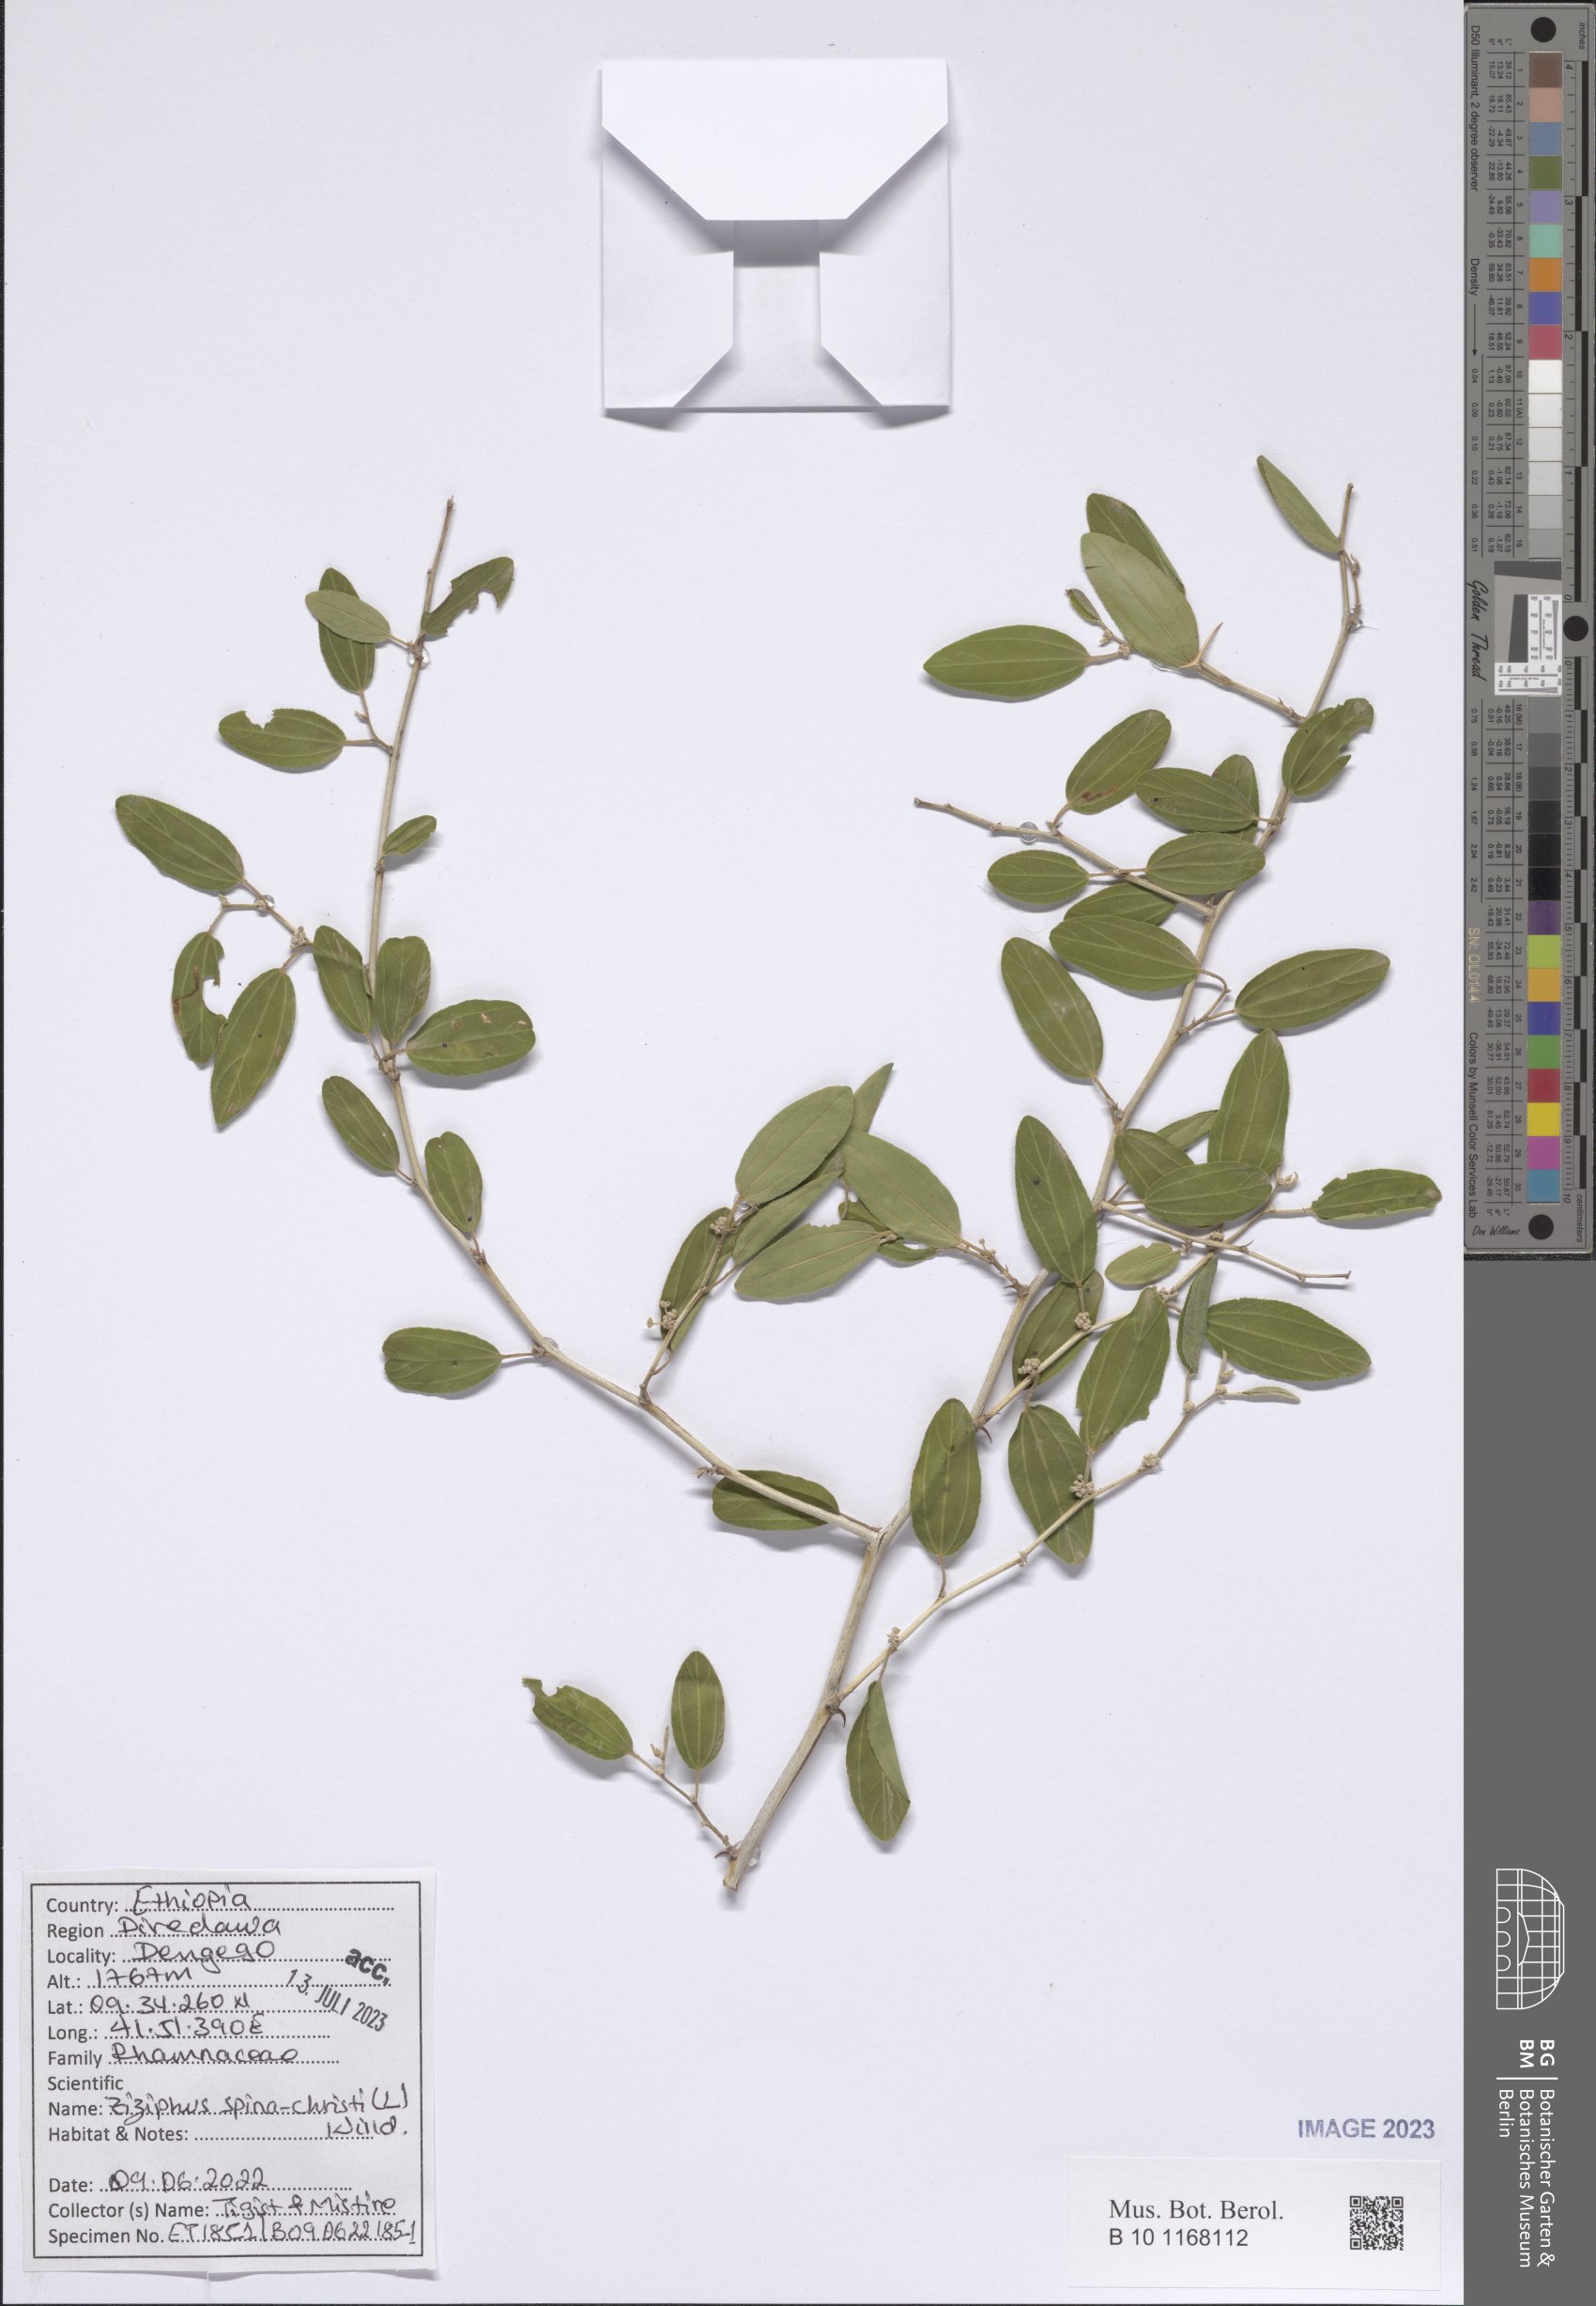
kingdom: Plantae
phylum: Tracheophyta
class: Magnoliopsida
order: Rosales
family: Rhamnaceae
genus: Ziziphus
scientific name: Ziziphus spina-christi
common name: Syrian christ-thorn
